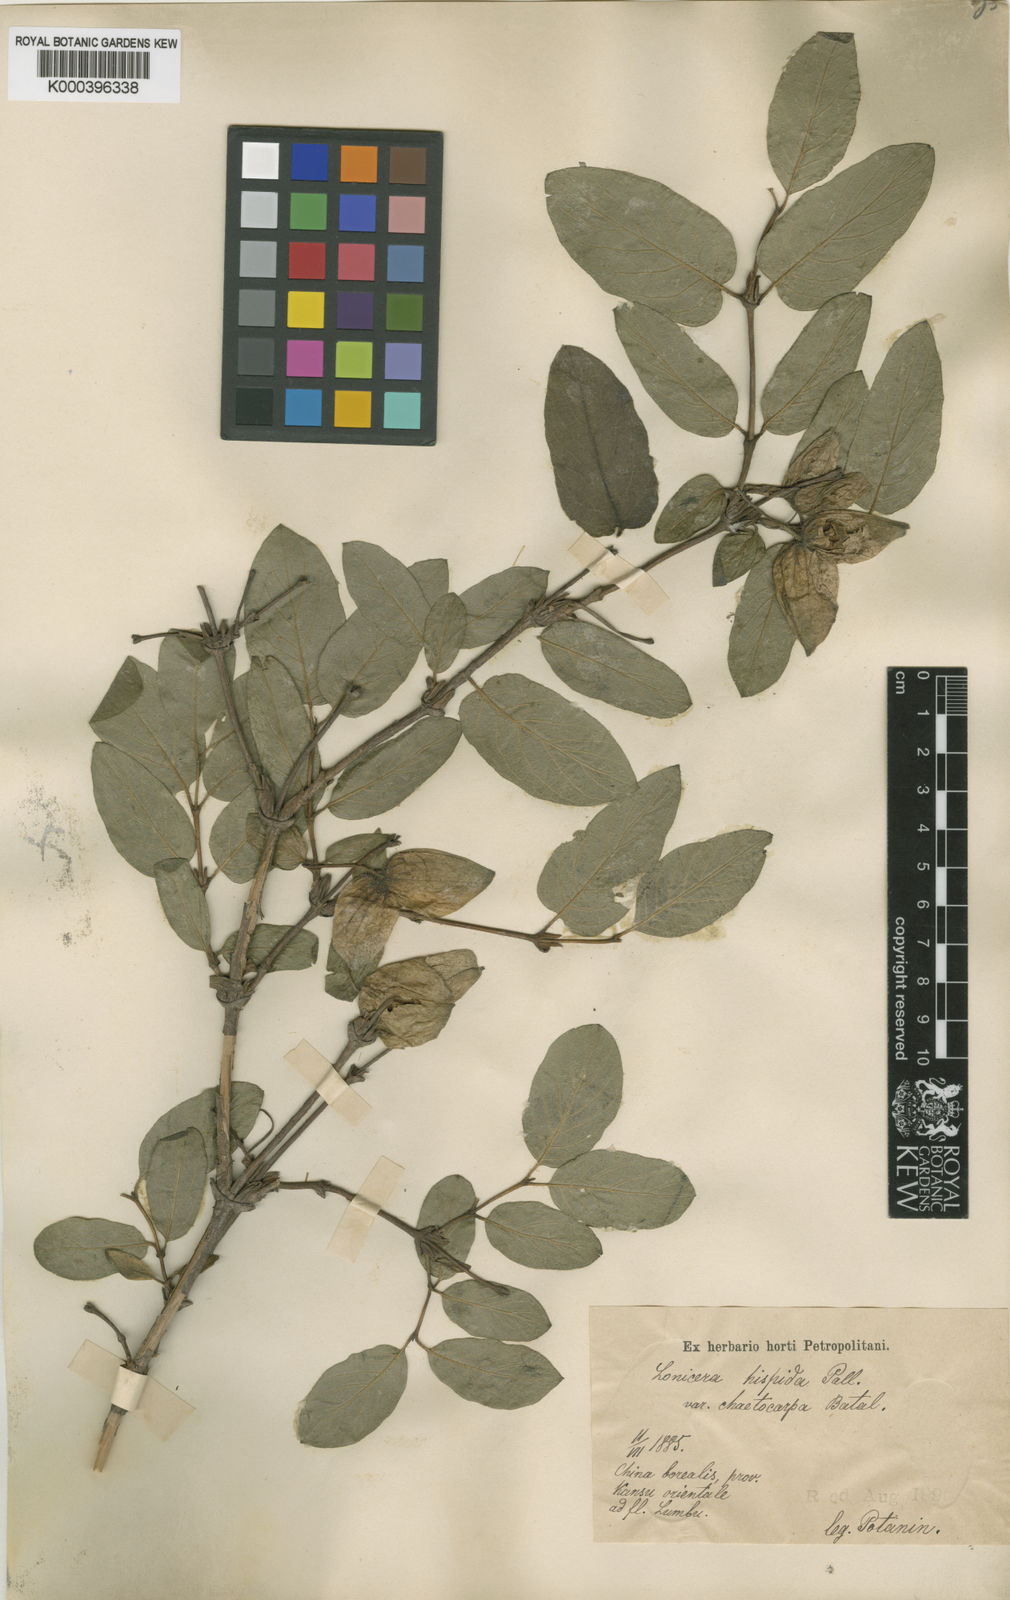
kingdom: Plantae
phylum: Tracheophyta
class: Magnoliopsida
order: Dipsacales
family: Caprifoliaceae
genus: Lonicera
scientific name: Lonicera hispida
